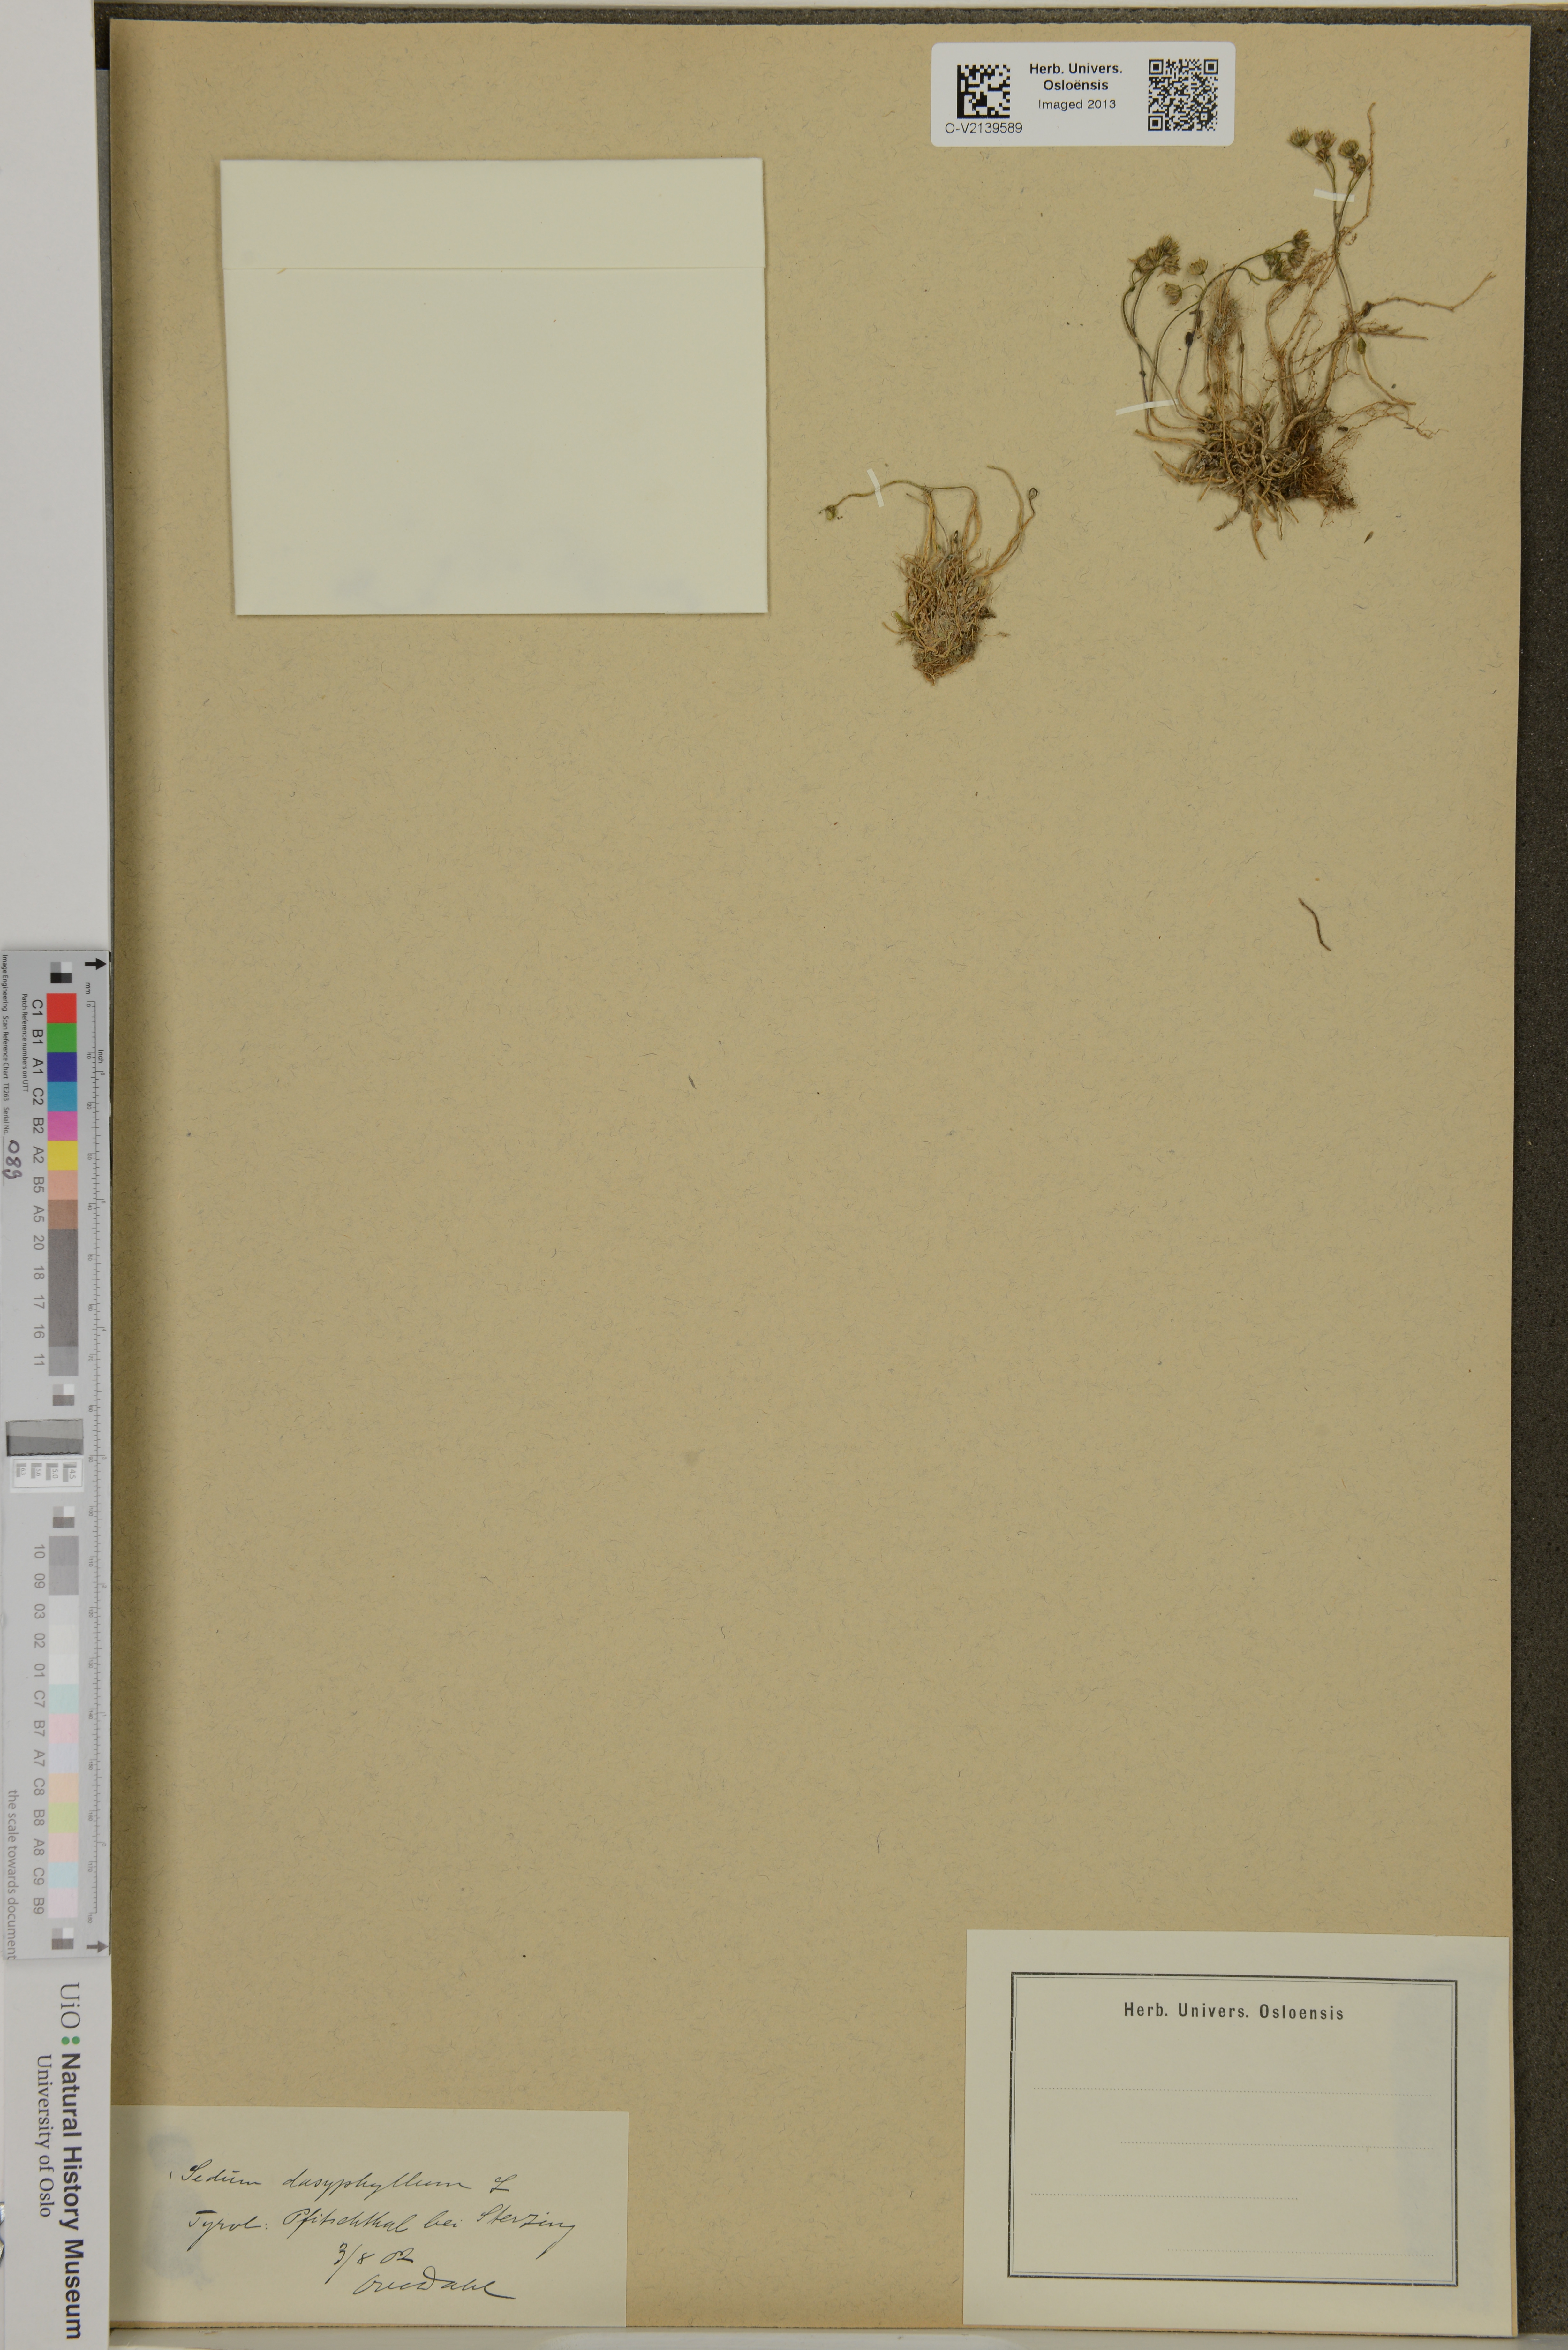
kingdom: Plantae
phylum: Tracheophyta
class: Magnoliopsida
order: Saxifragales
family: Crassulaceae
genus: Sedum
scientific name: Sedum dasyphyllum
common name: Thick-leaf stonecrop
